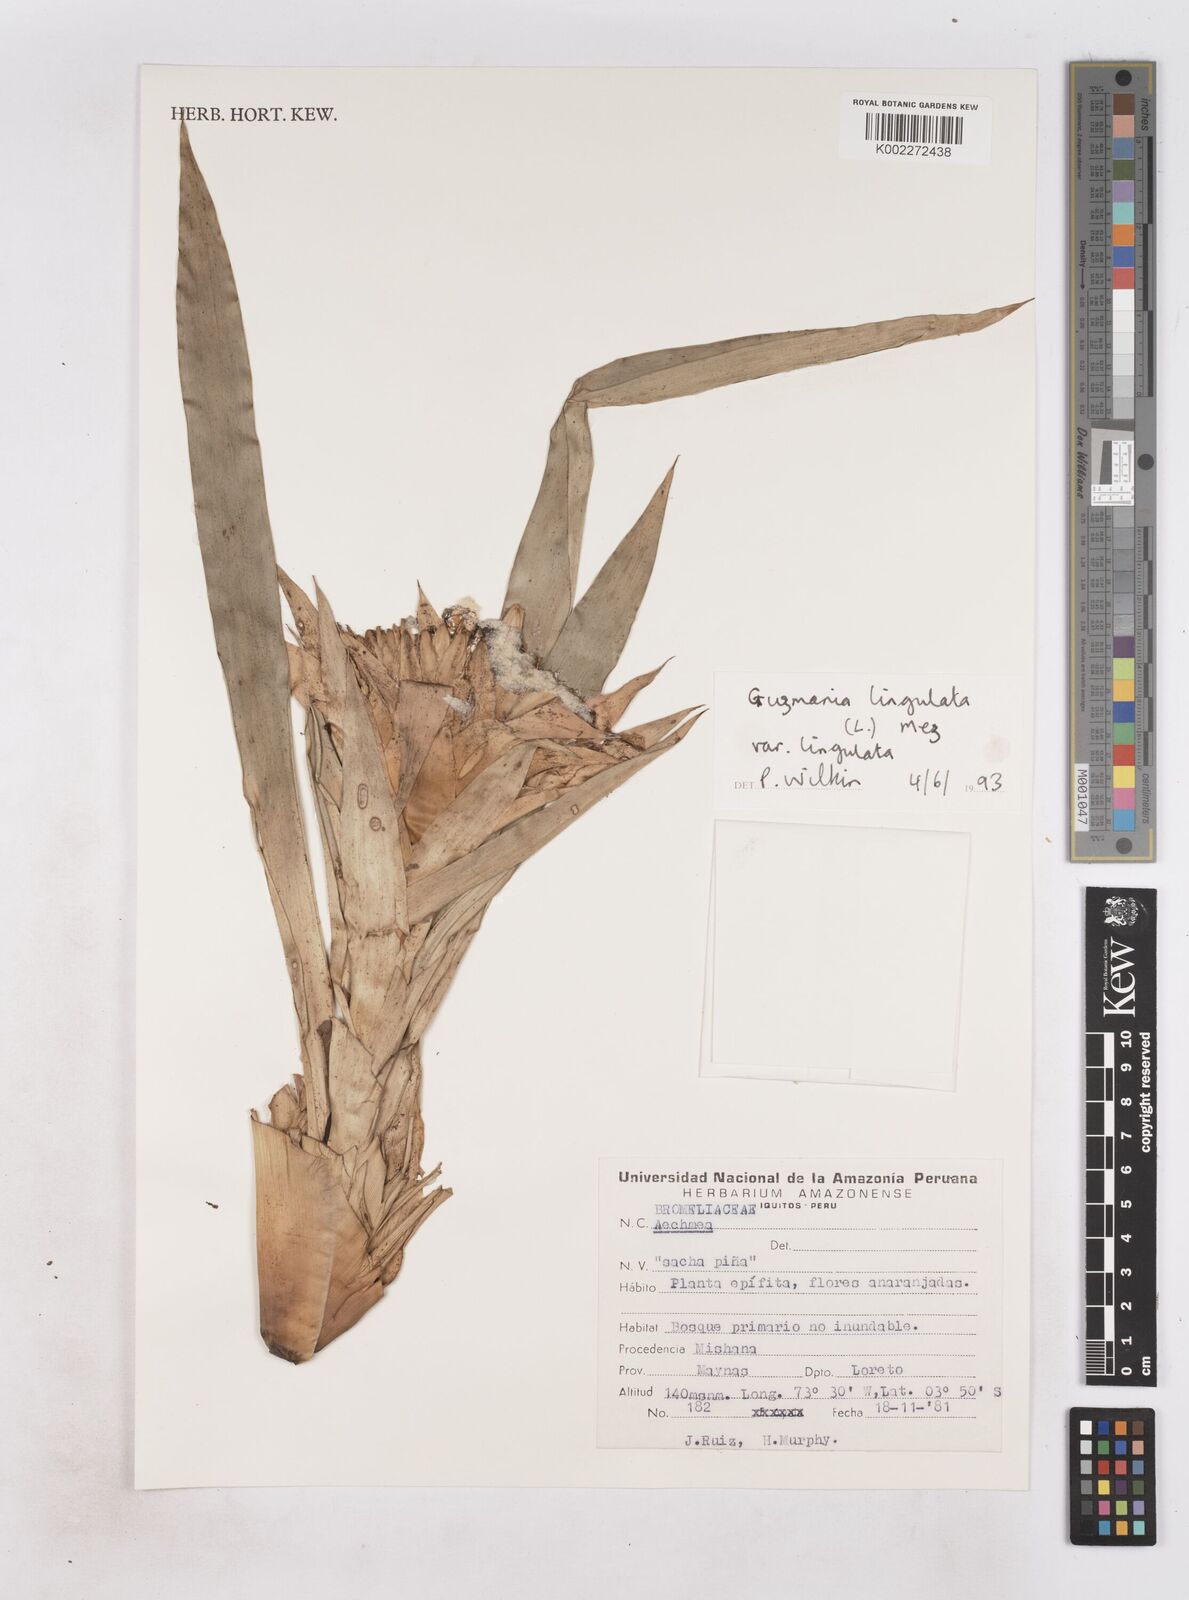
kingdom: Plantae
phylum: Tracheophyta
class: Liliopsida
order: Poales
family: Bromeliaceae
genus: Guzmania
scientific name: Guzmania lingulata
